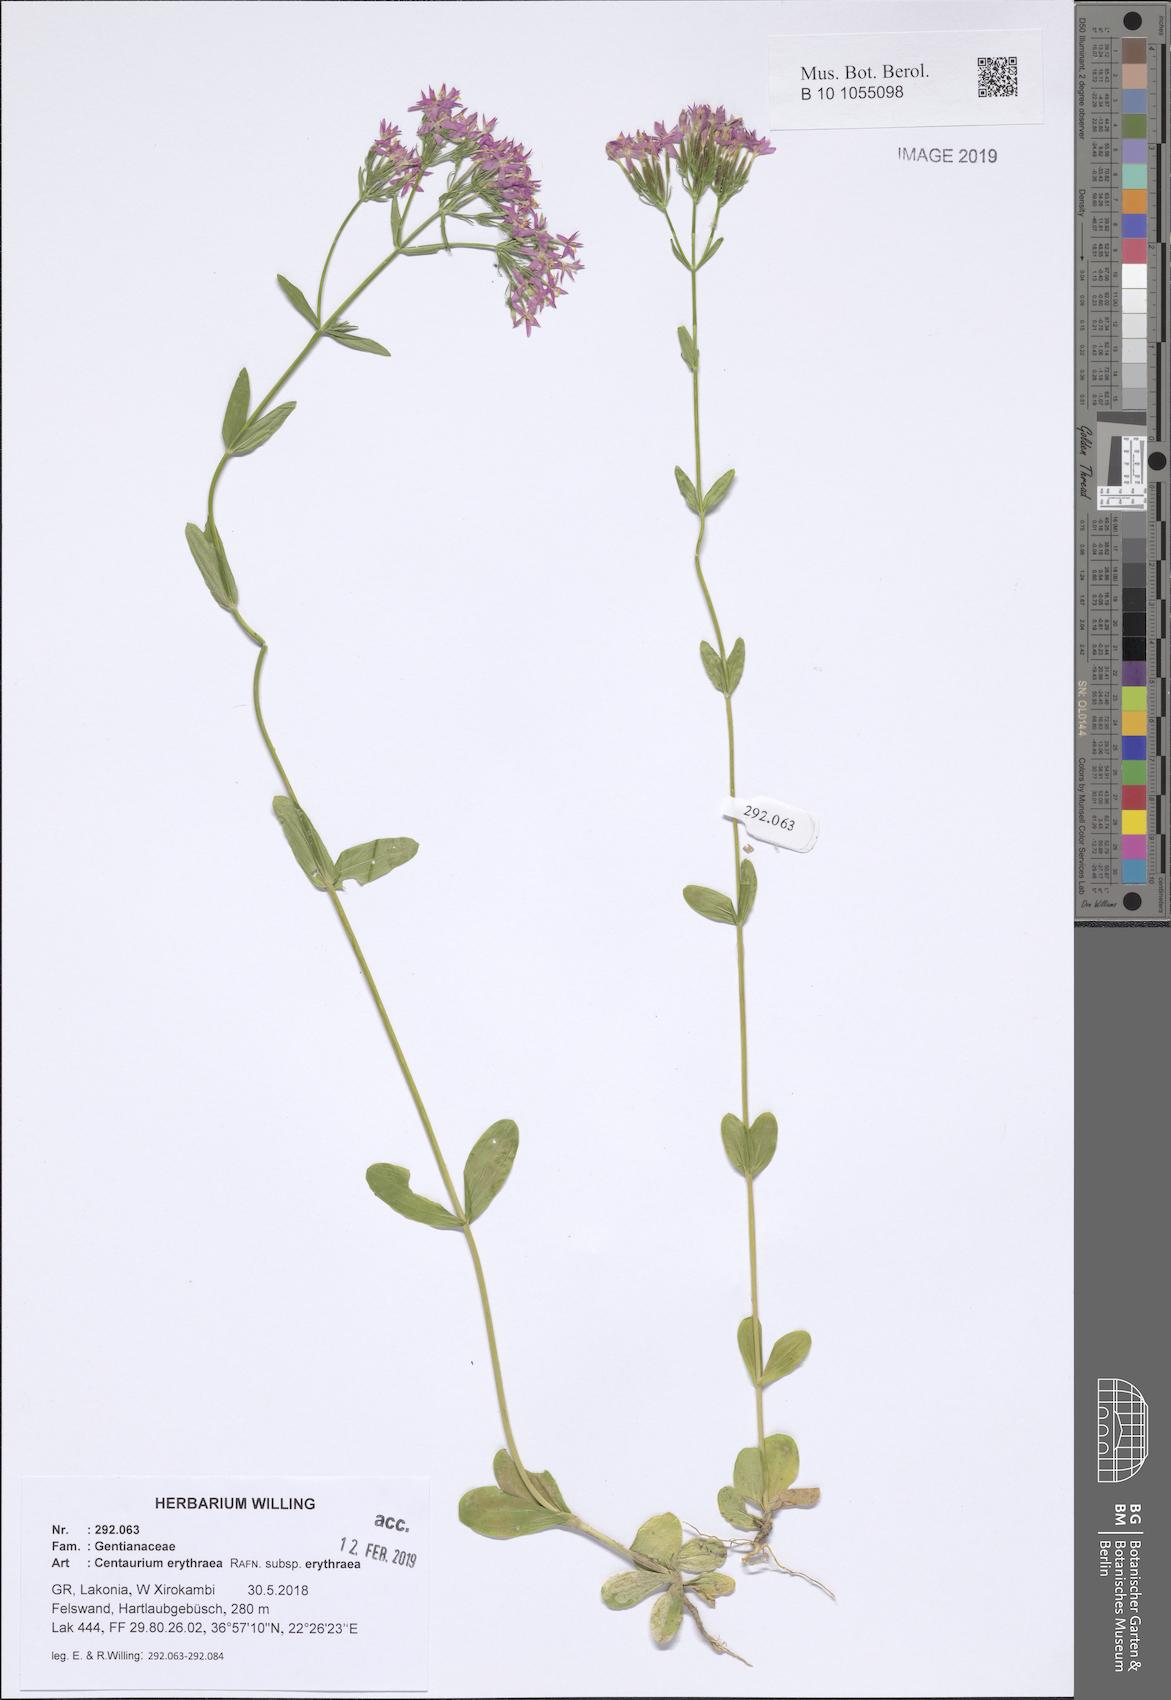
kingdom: Plantae
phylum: Tracheophyta
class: Magnoliopsida
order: Gentianales
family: Gentianaceae
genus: Centaurium
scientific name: Centaurium erythraea
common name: Common centaury
